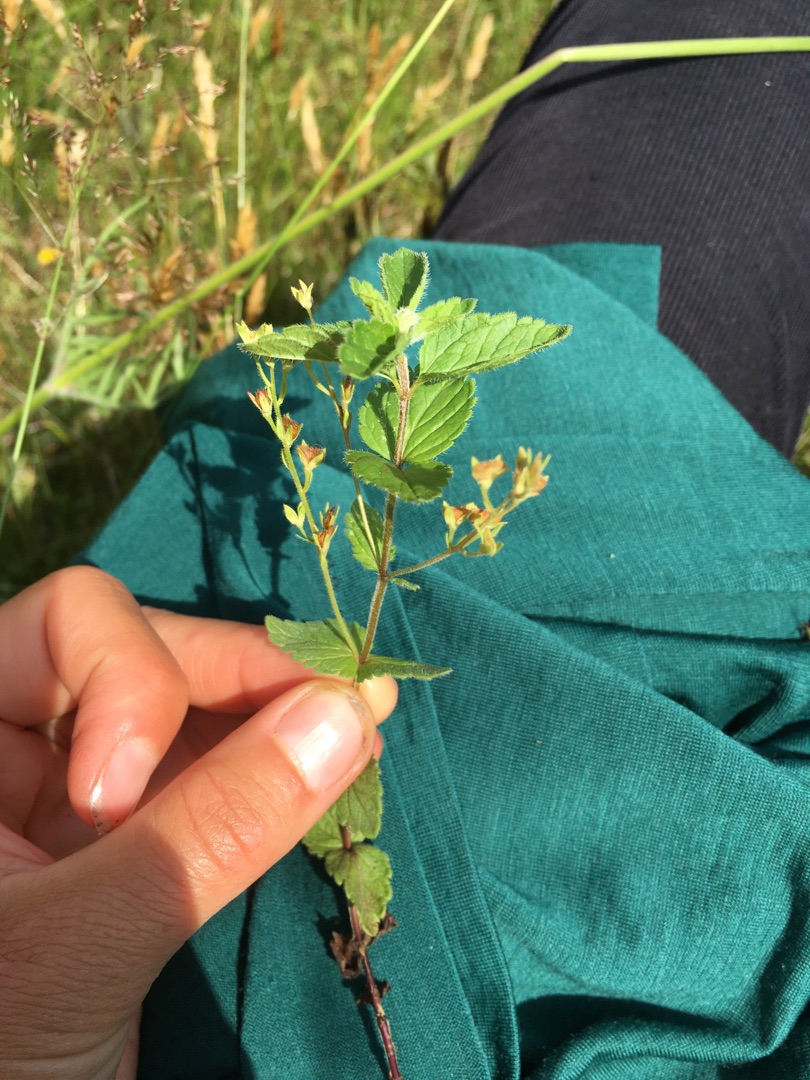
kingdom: Plantae
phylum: Tracheophyta
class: Magnoliopsida
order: Lamiales
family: Plantaginaceae
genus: Veronica
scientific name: Veronica chamaedrys
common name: Tveskægget ærenpris
